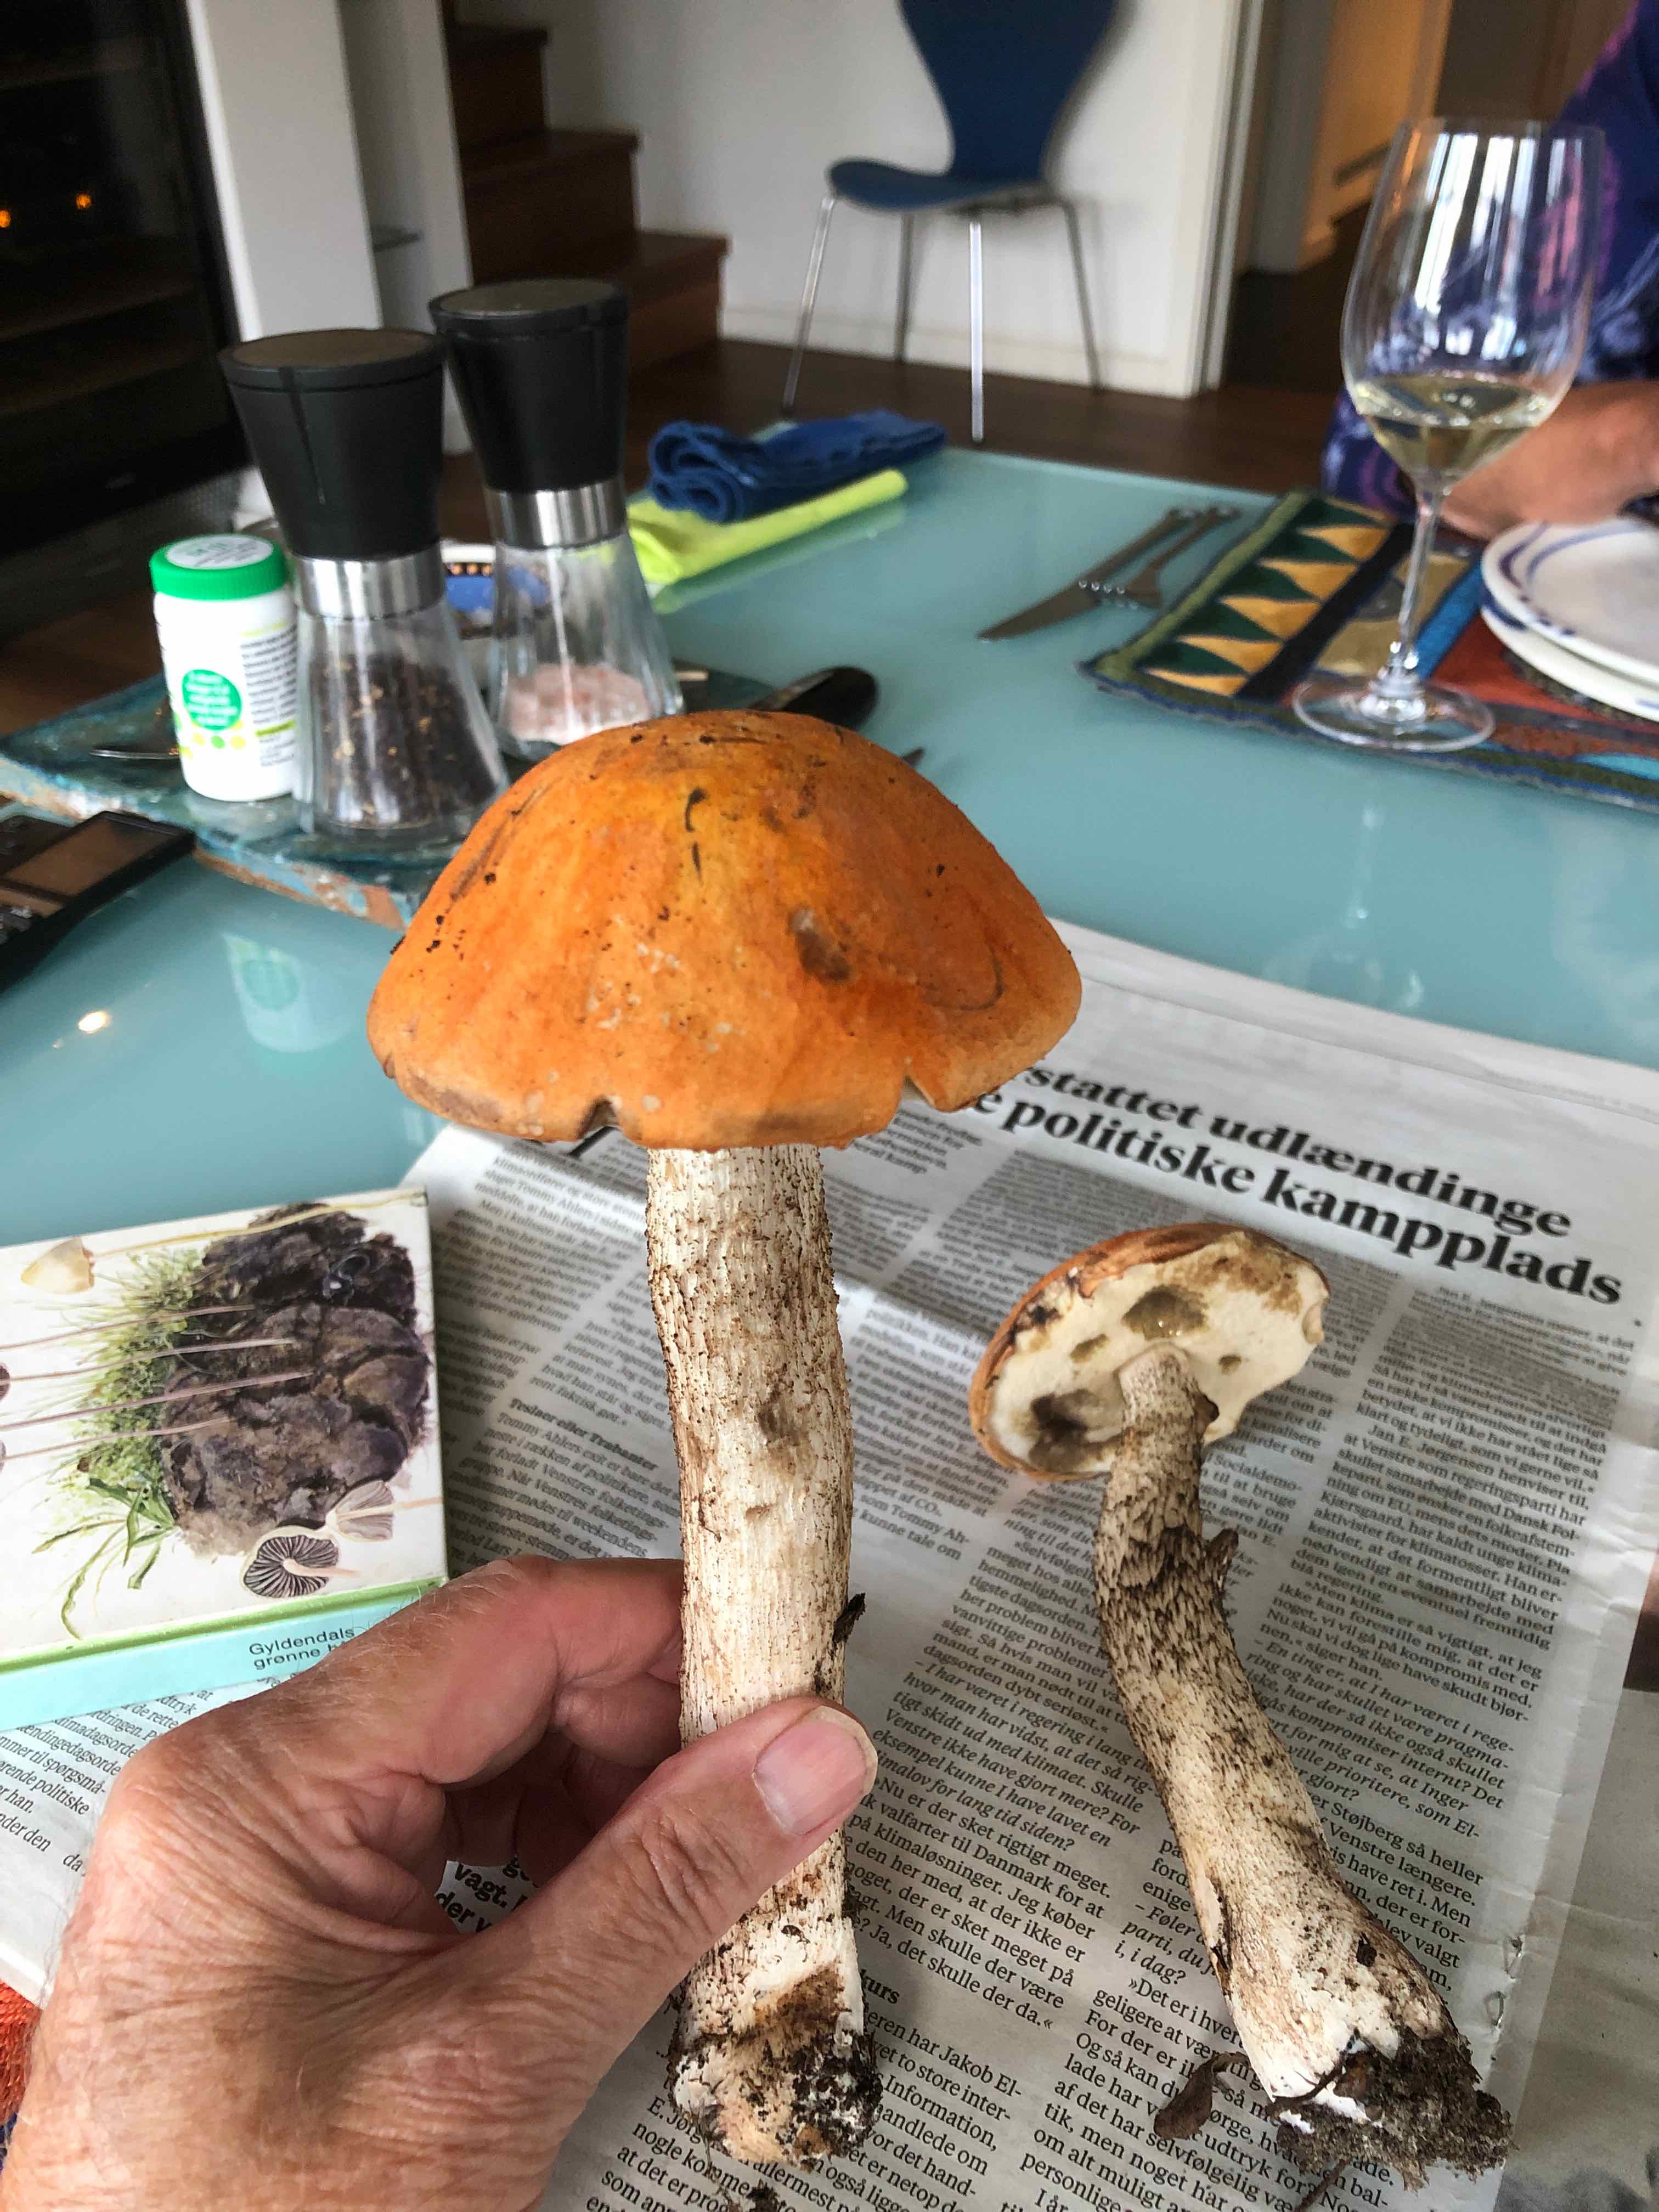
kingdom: Fungi
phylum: Basidiomycota
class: Agaricomycetes
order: Boletales
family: Boletaceae
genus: Leccinum
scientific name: Leccinum
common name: skælrørhat
